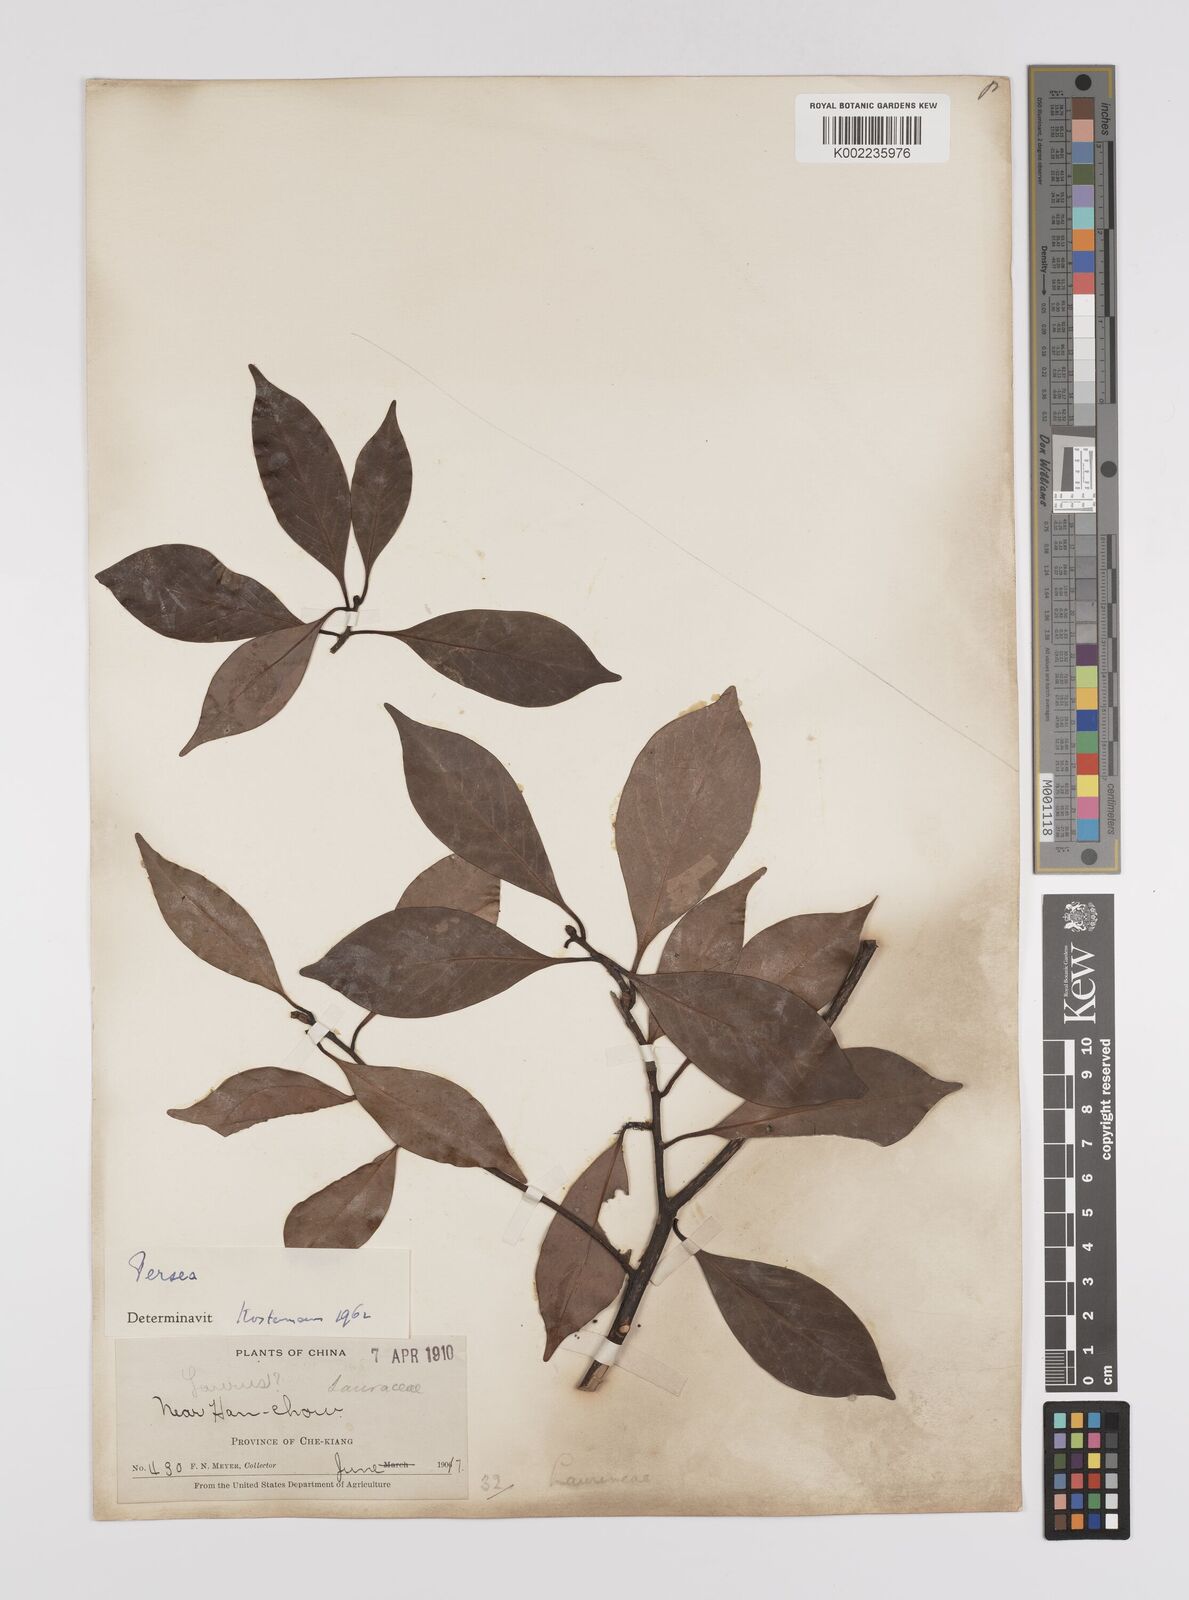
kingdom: Plantae
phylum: Tracheophyta
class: Magnoliopsida
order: Laurales
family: Lauraceae
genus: Persea
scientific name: Persea
